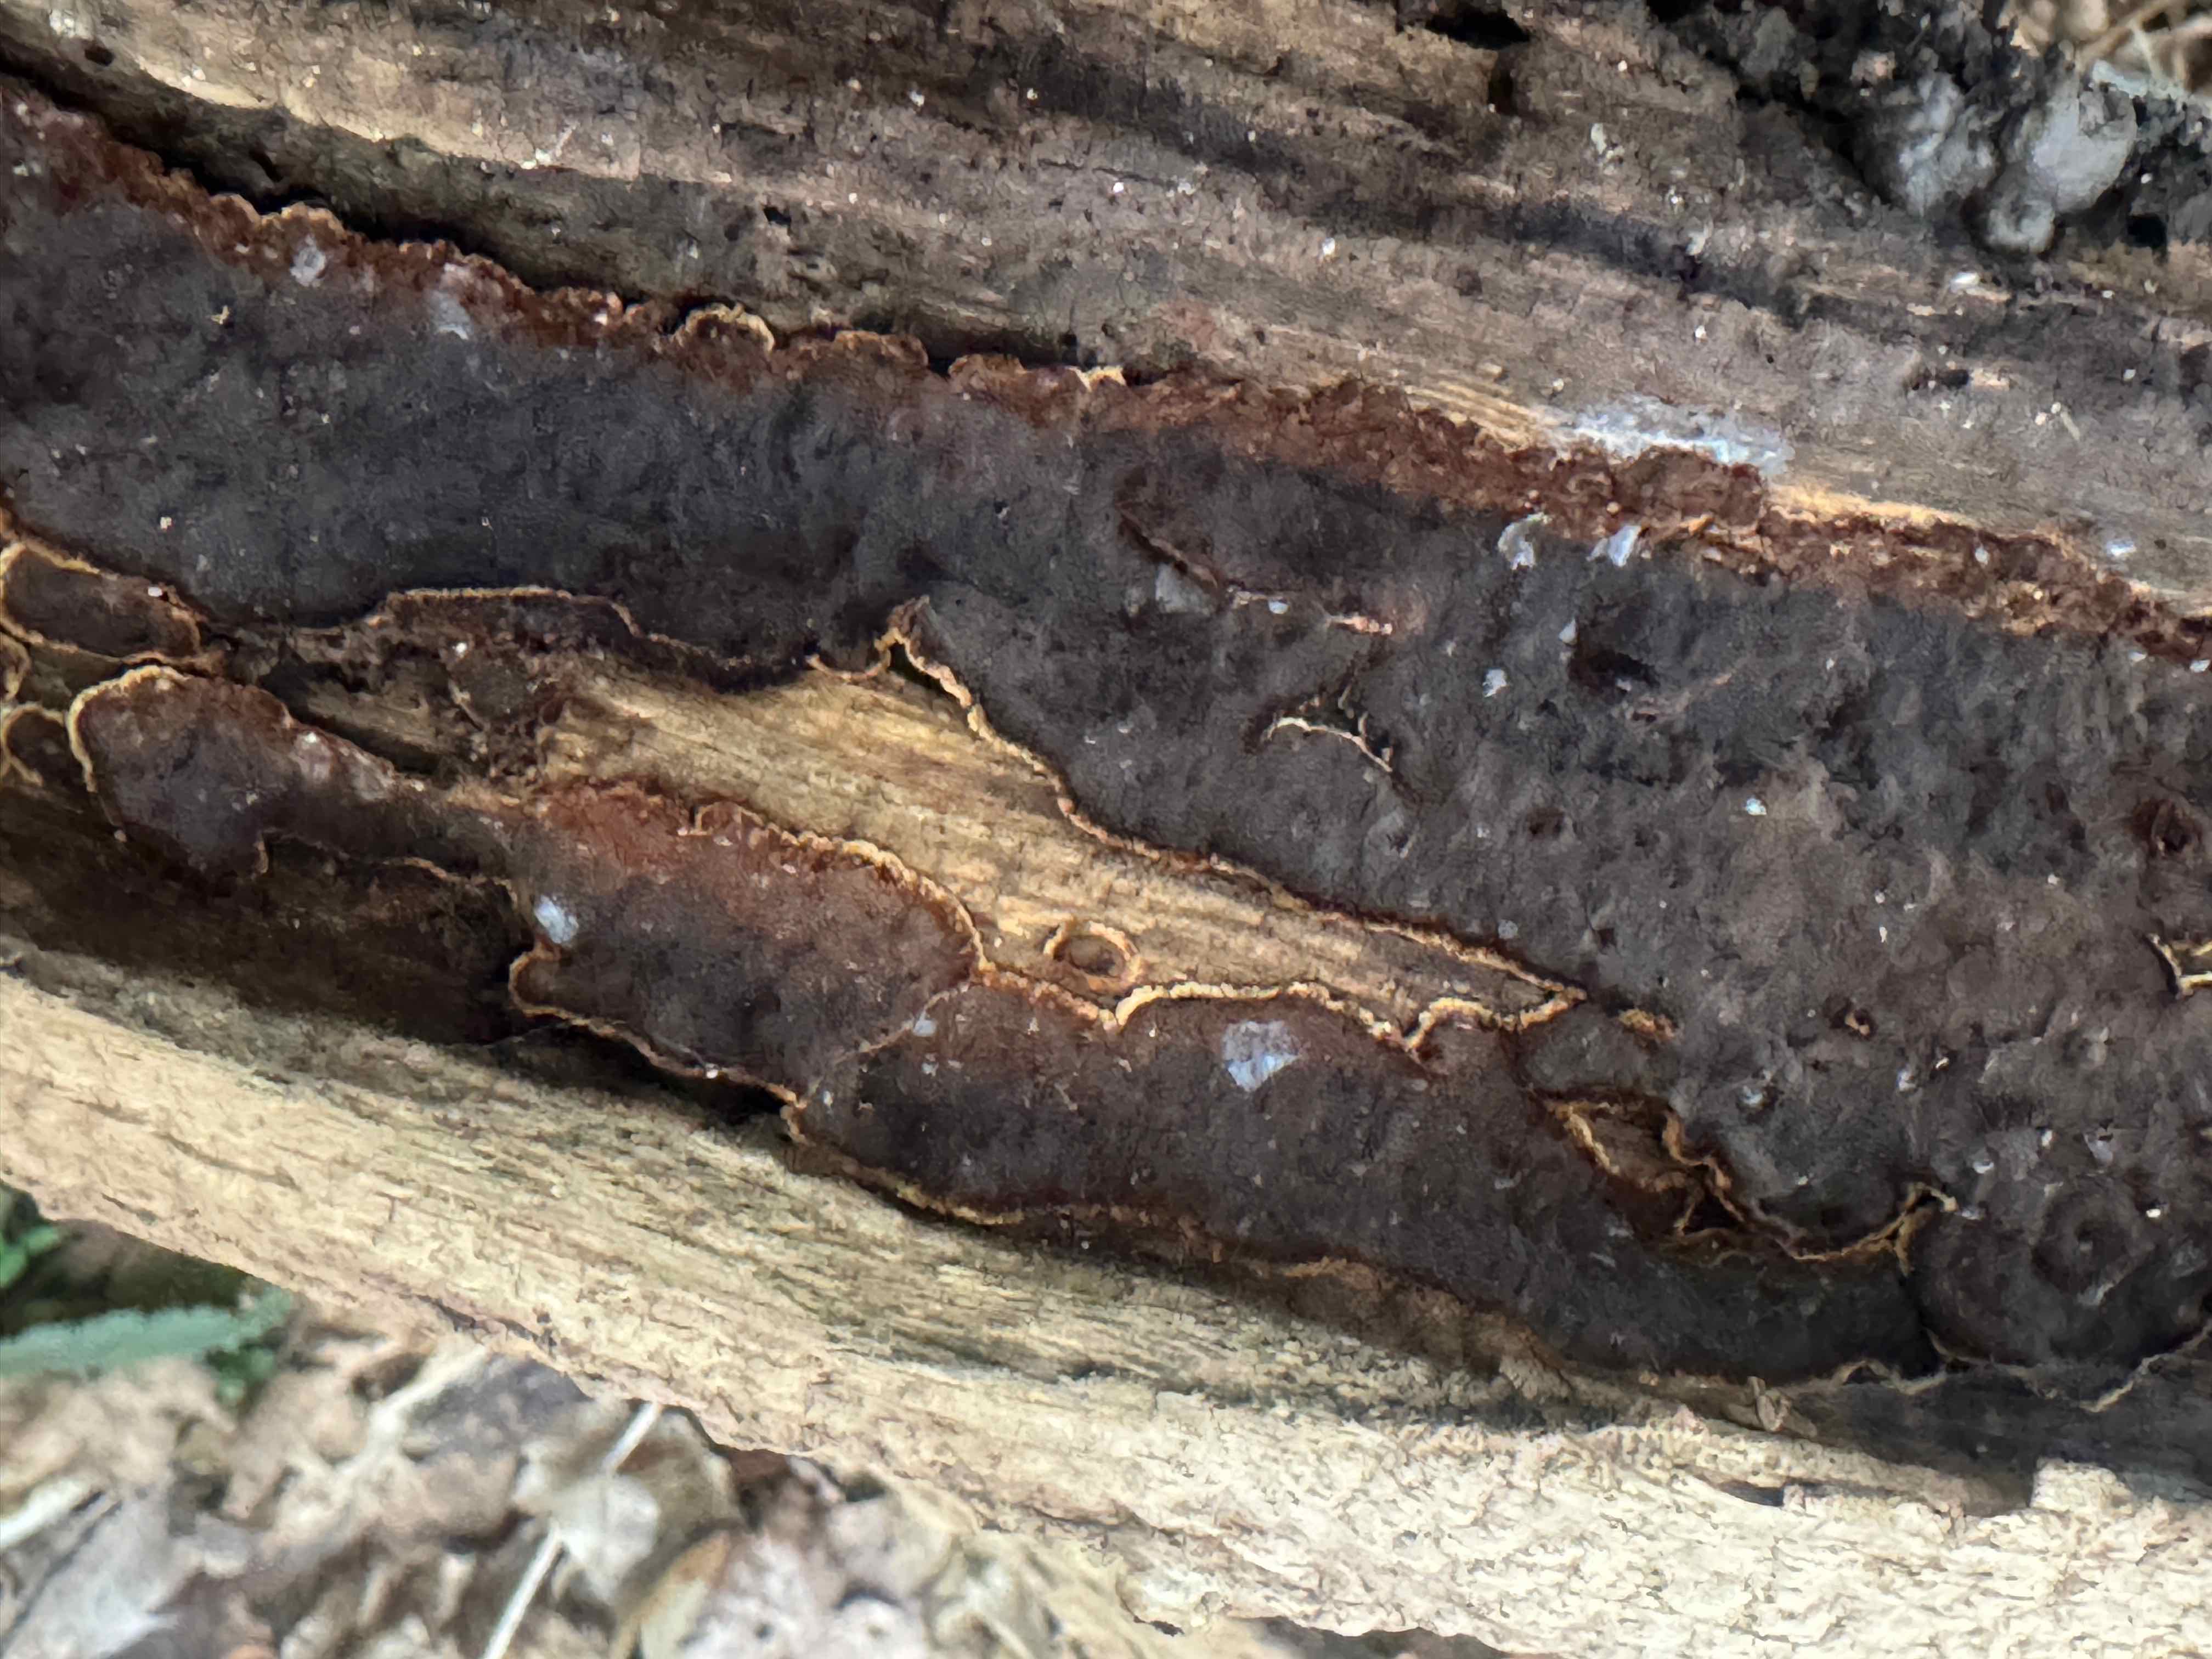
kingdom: Fungi
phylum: Basidiomycota
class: Agaricomycetes
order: Hymenochaetales
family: Hymenochaetaceae
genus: Hymenochaete
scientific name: Hymenochaete rubiginosa
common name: stiv ruslædersvamp
